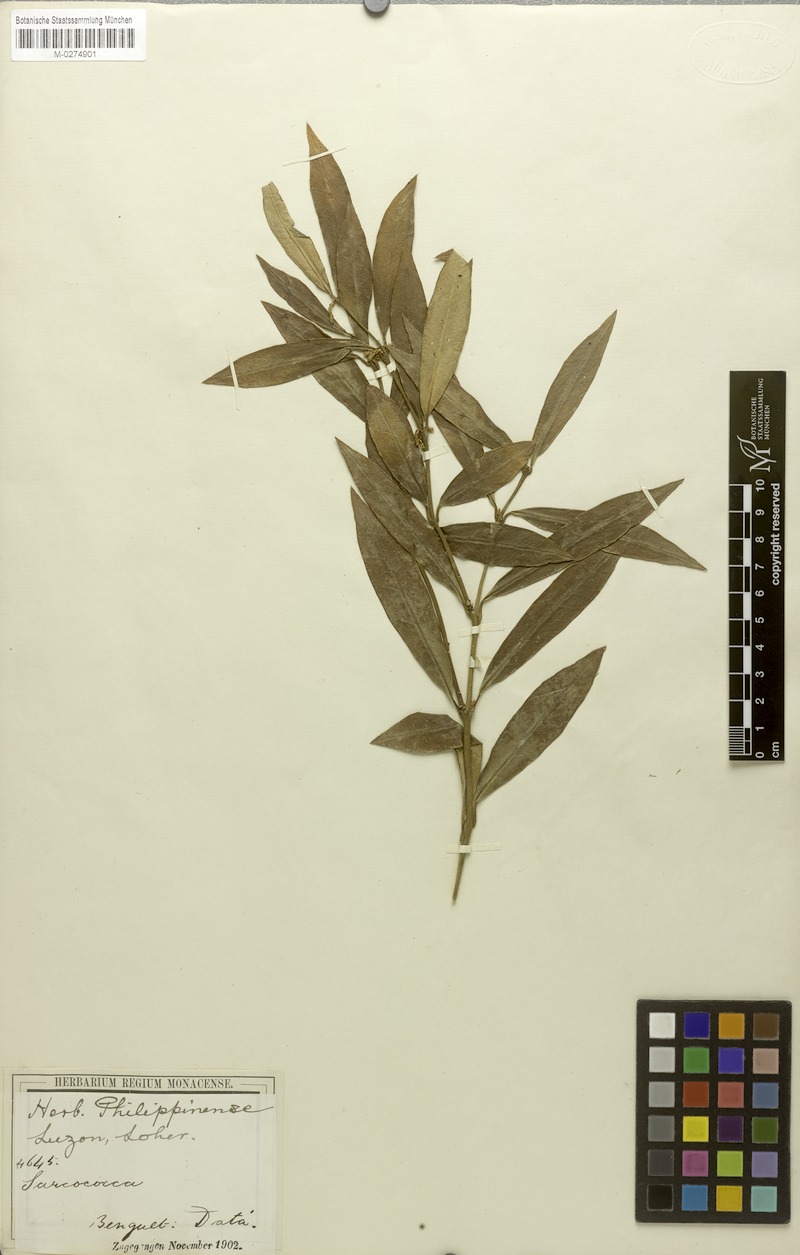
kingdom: Plantae
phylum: Tracheophyta
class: Magnoliopsida
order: Buxales
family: Buxaceae
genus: Sarcococca
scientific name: Sarcococca saligna
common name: Willow-leaf sweet-box
